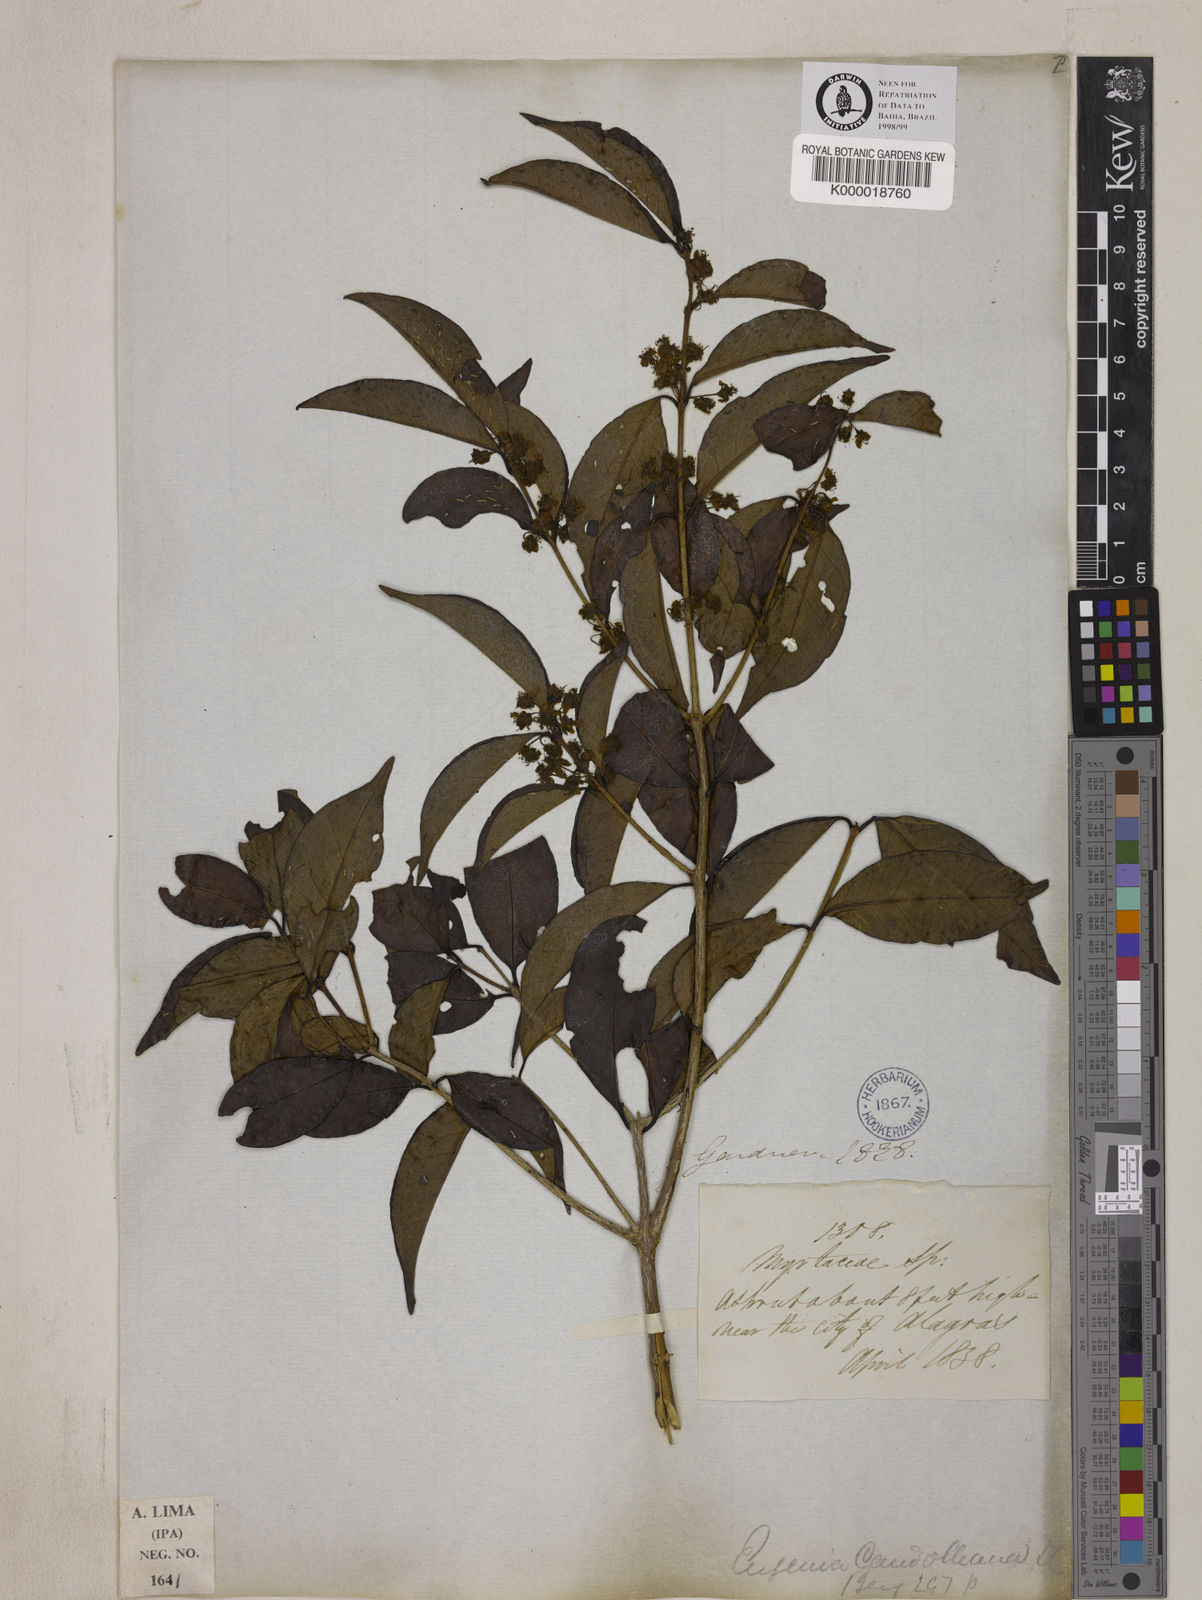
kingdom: Plantae
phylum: Tracheophyta
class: Magnoliopsida
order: Myrtales
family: Myrtaceae
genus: Eugenia
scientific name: Eugenia candolleana
